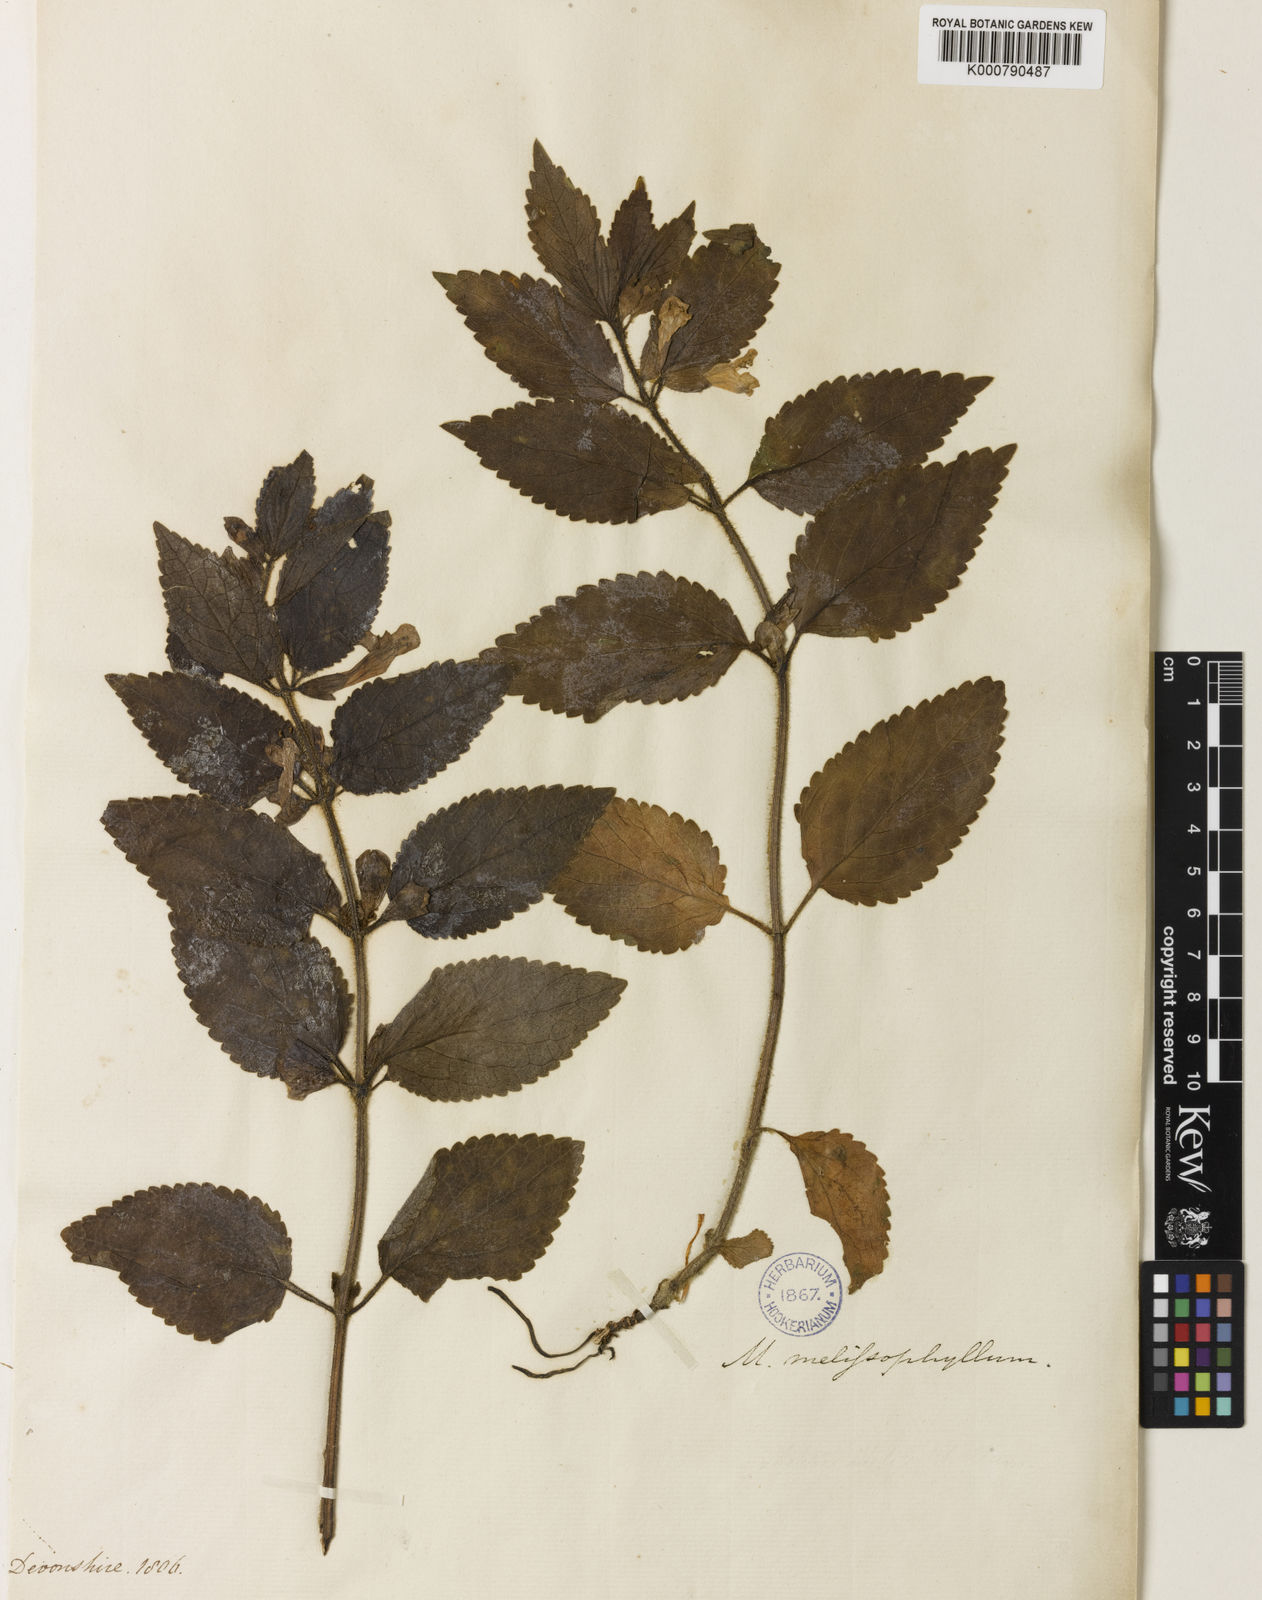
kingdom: Plantae
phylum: Tracheophyta
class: Magnoliopsida
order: Lamiales
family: Lamiaceae
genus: Melittis
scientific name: Melittis melissophyllum
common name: Bastard balm
